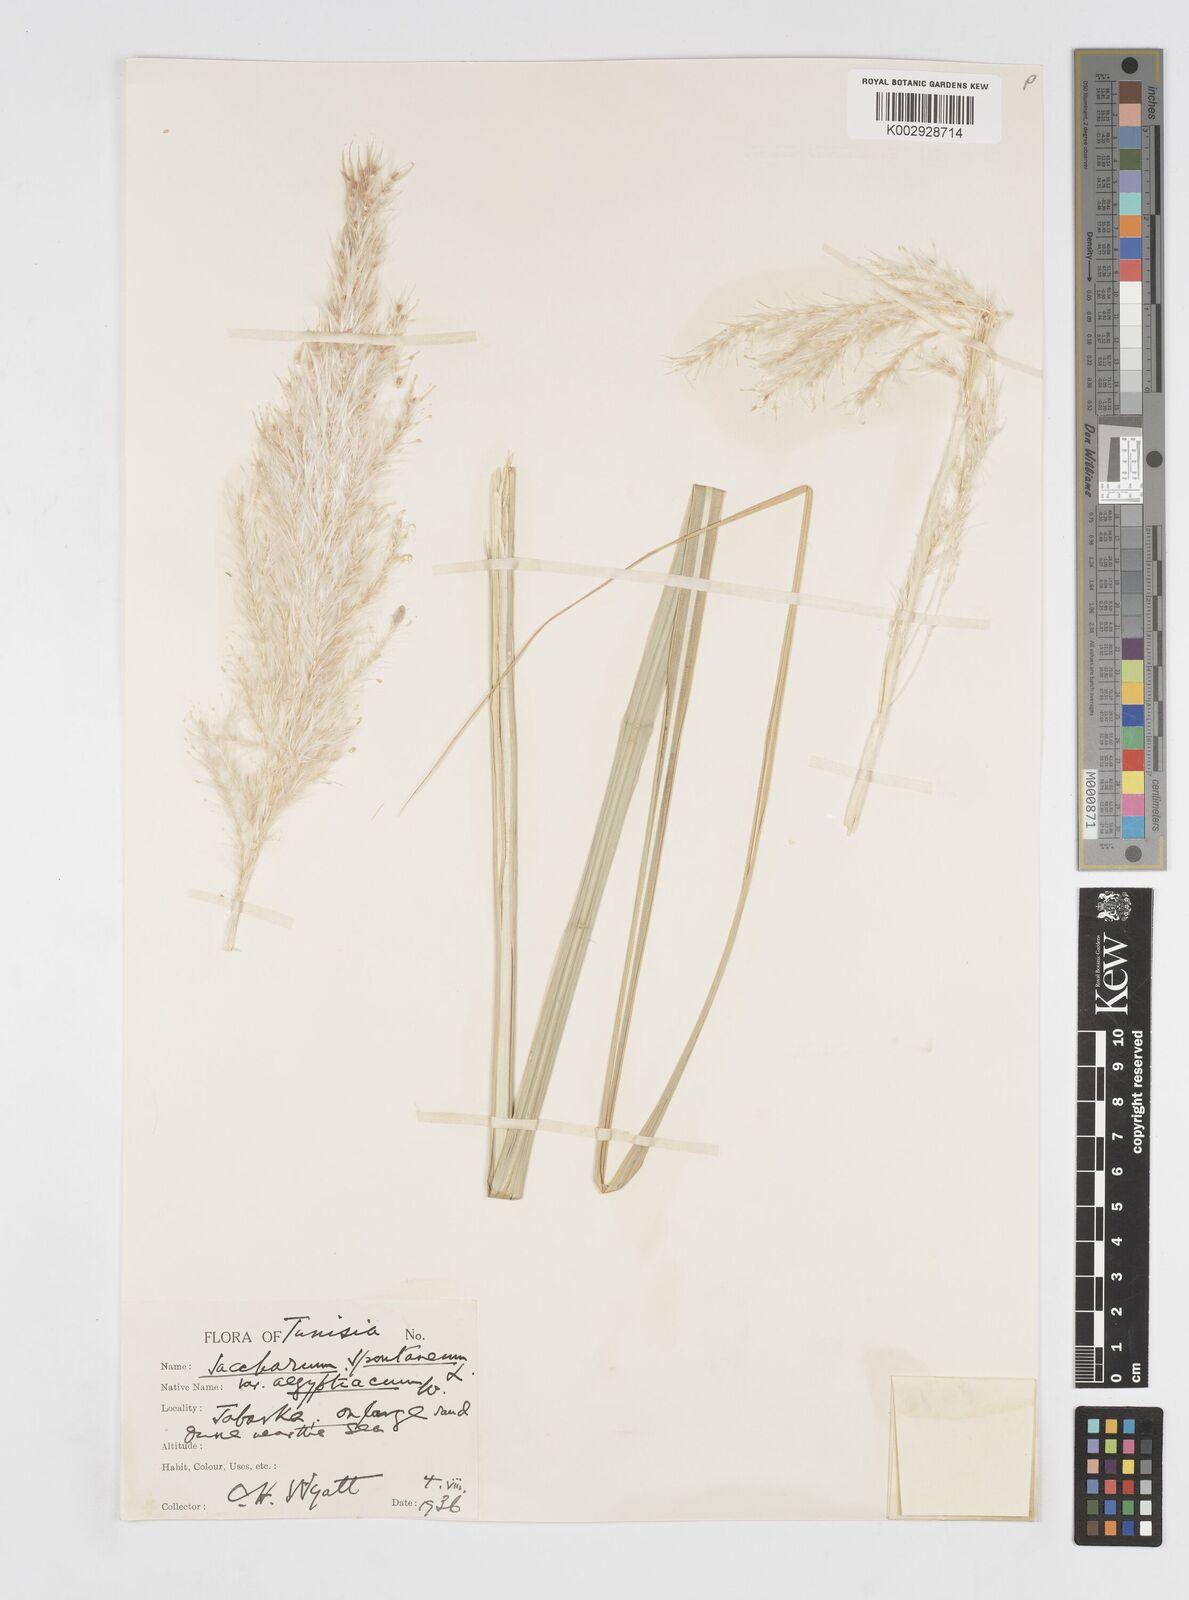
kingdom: Plantae
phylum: Tracheophyta
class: Liliopsida
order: Poales
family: Poaceae
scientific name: Poaceae
